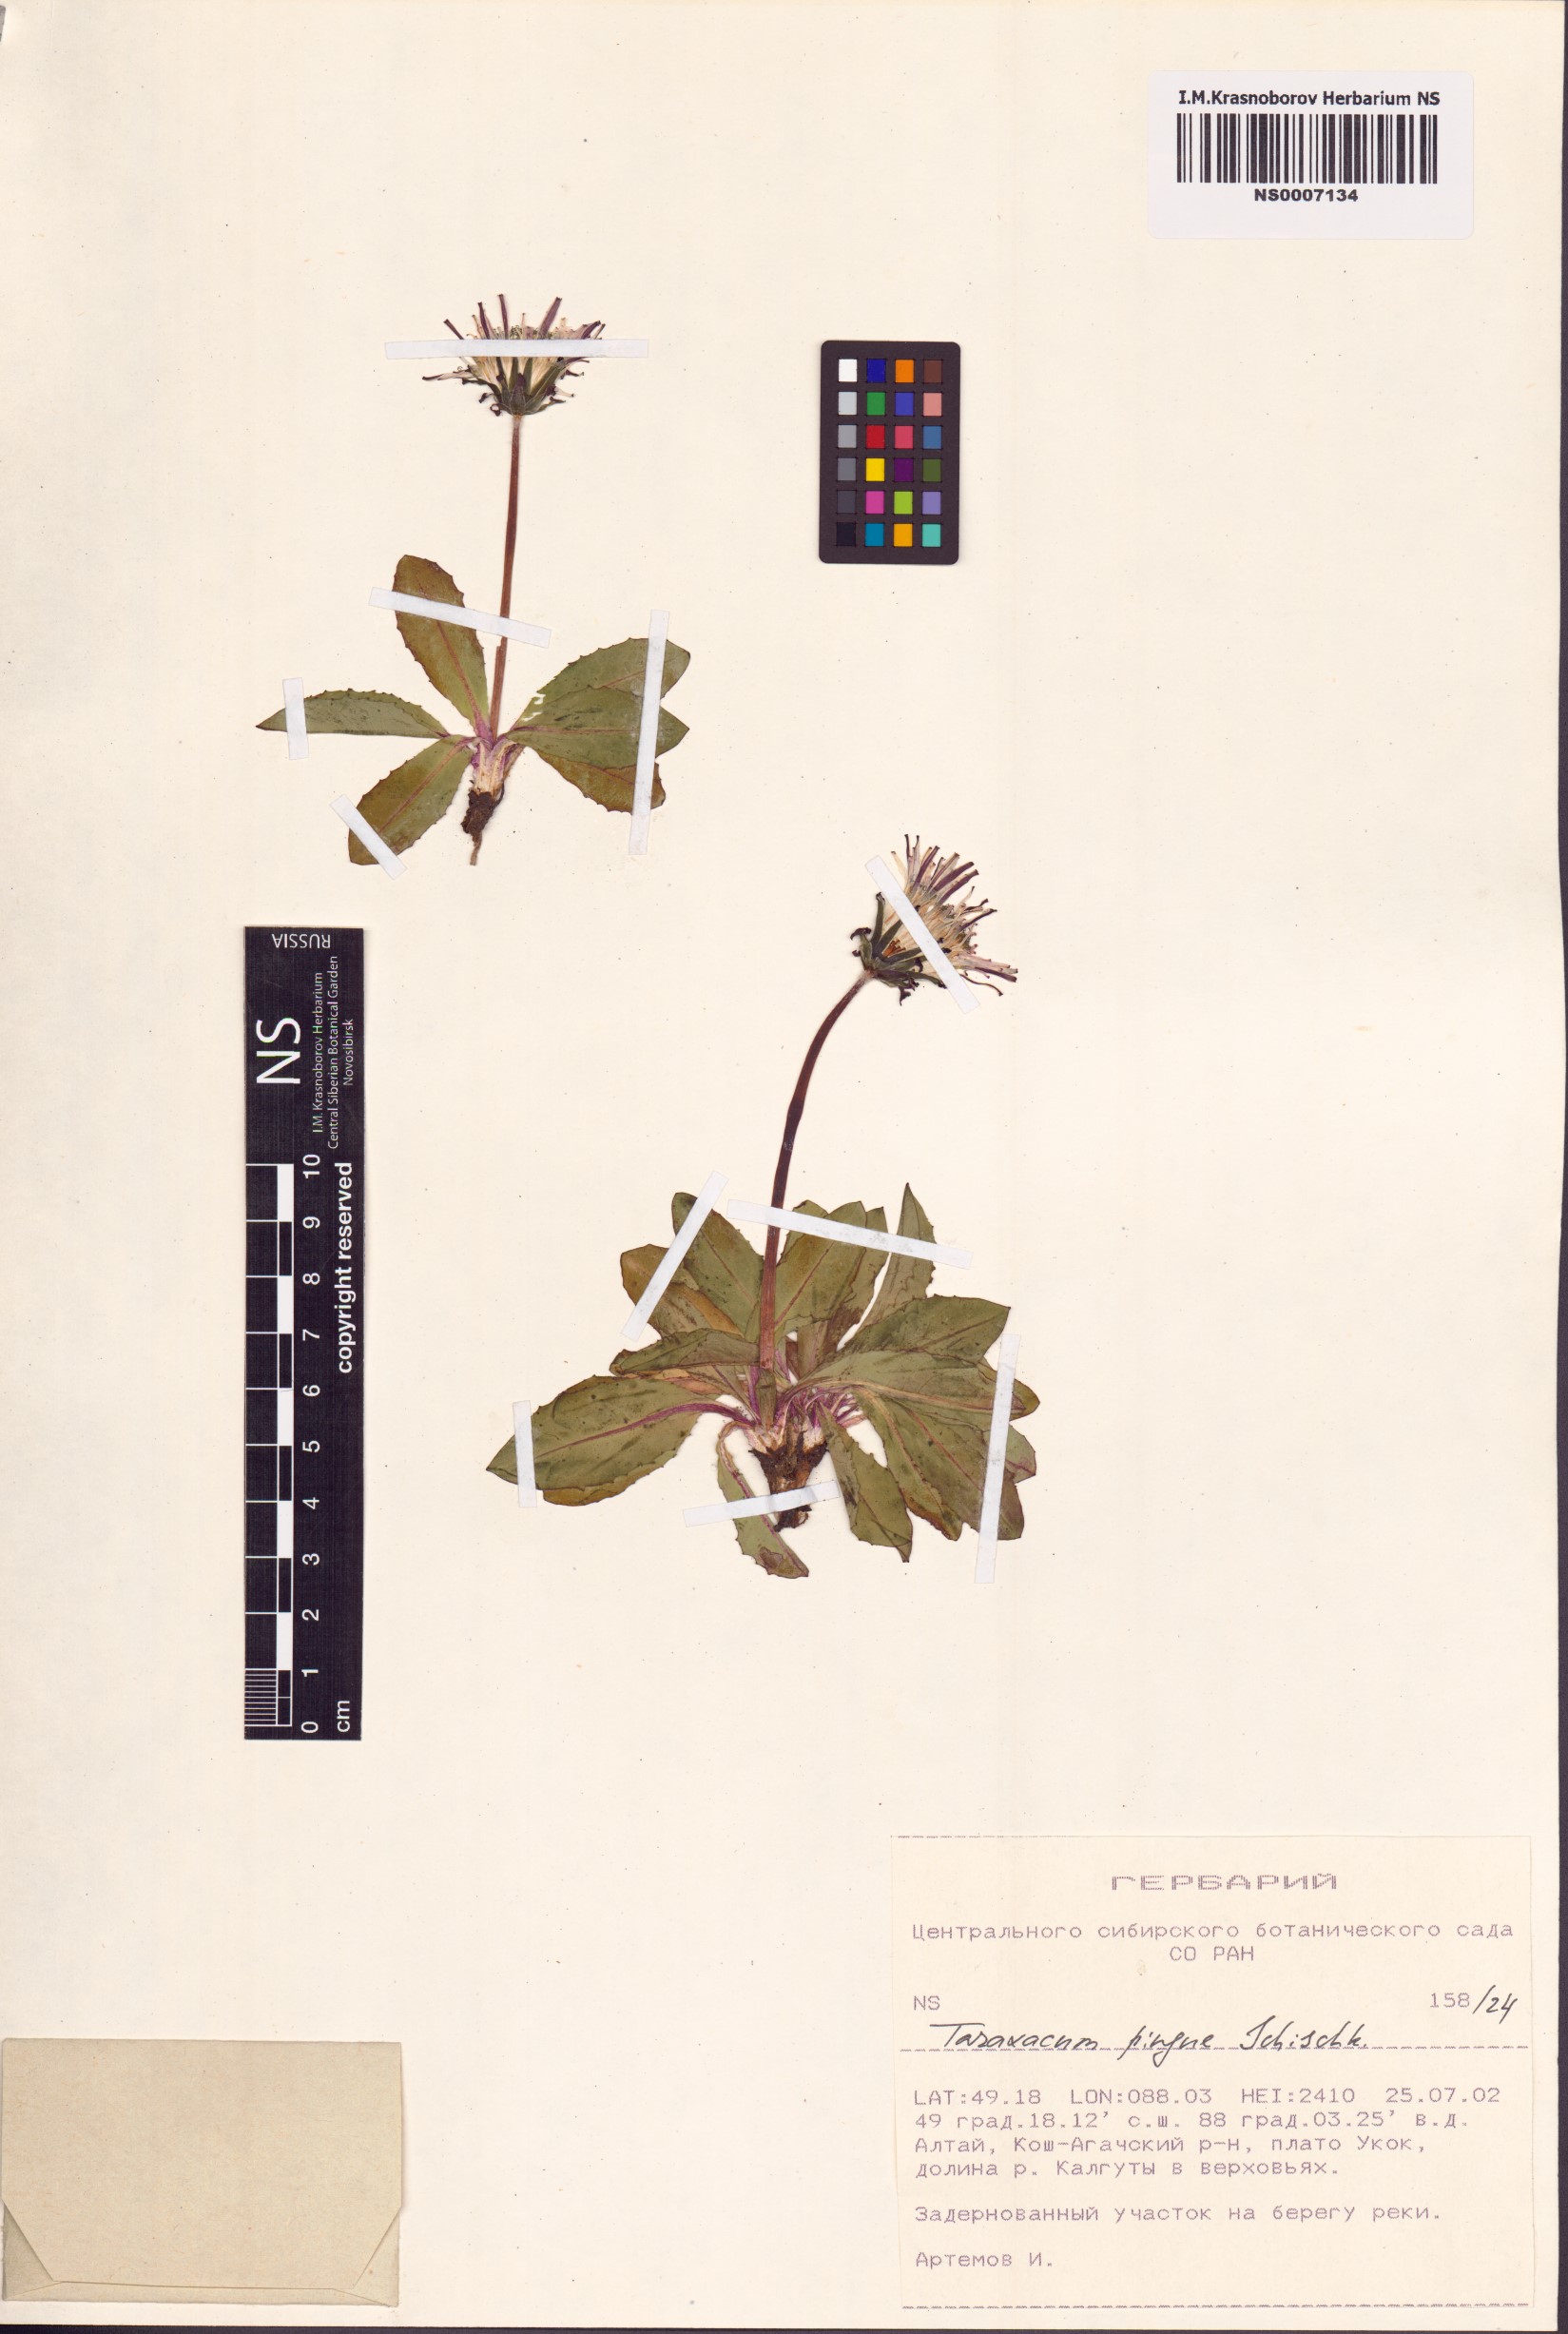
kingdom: Plantae
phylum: Tracheophyta
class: Magnoliopsida
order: Asterales
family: Asteraceae
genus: Taraxacum
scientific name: Taraxacum pingue
